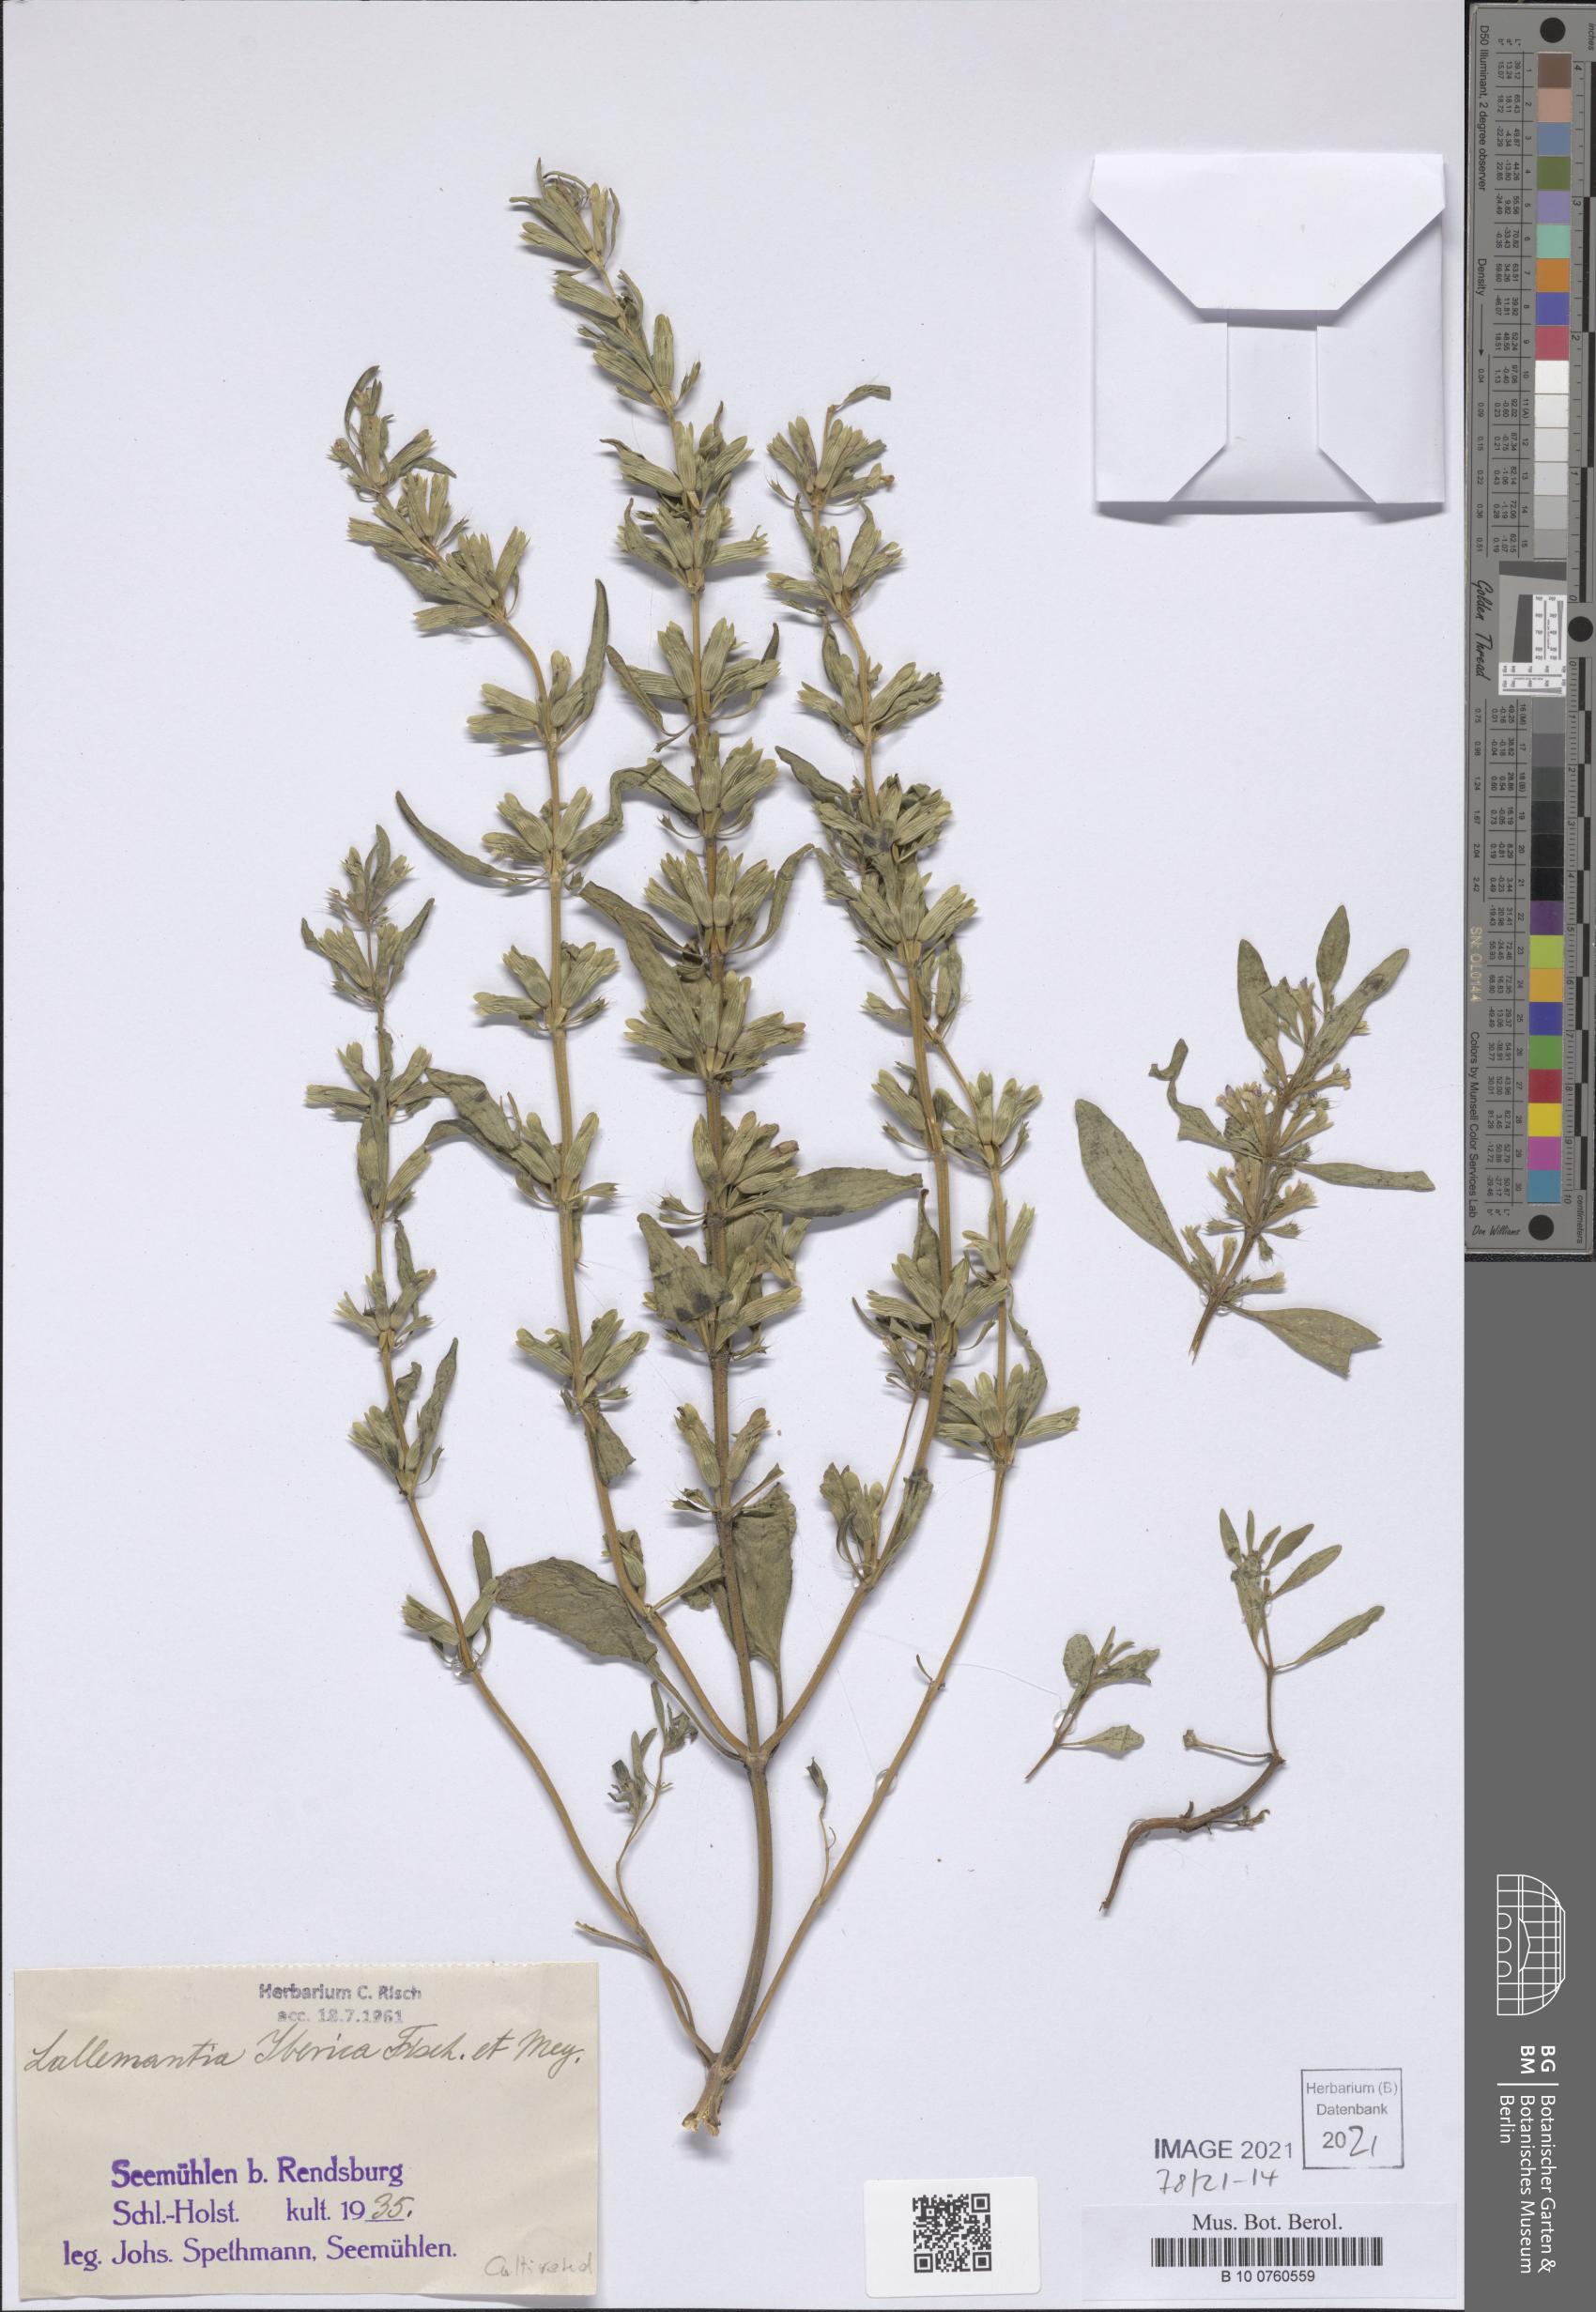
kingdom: Plantae
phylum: Tracheophyta
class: Magnoliopsida
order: Lamiales
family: Lamiaceae
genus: Lallemantia
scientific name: Lallemantia iberica
